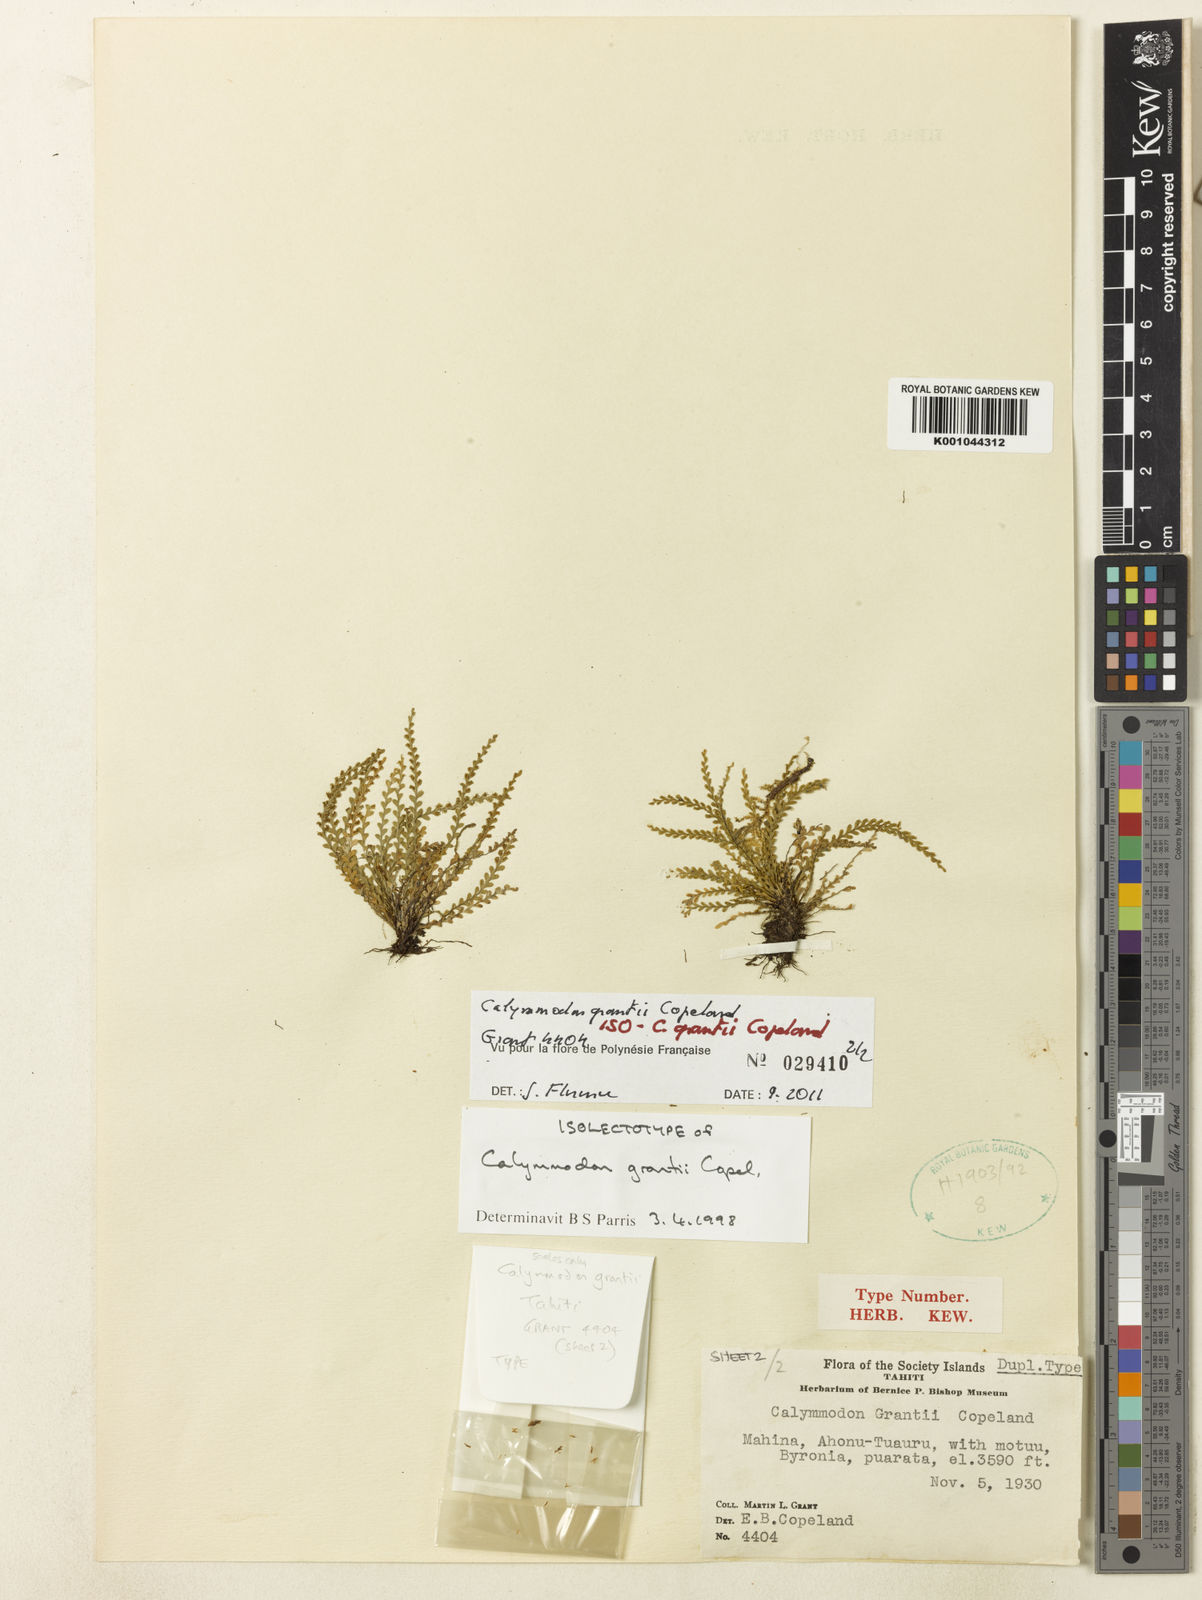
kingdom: Plantae
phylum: Tracheophyta
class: Polypodiopsida
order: Polypodiales
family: Polypodiaceae
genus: Calymmodon
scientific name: Calymmodon grantii
